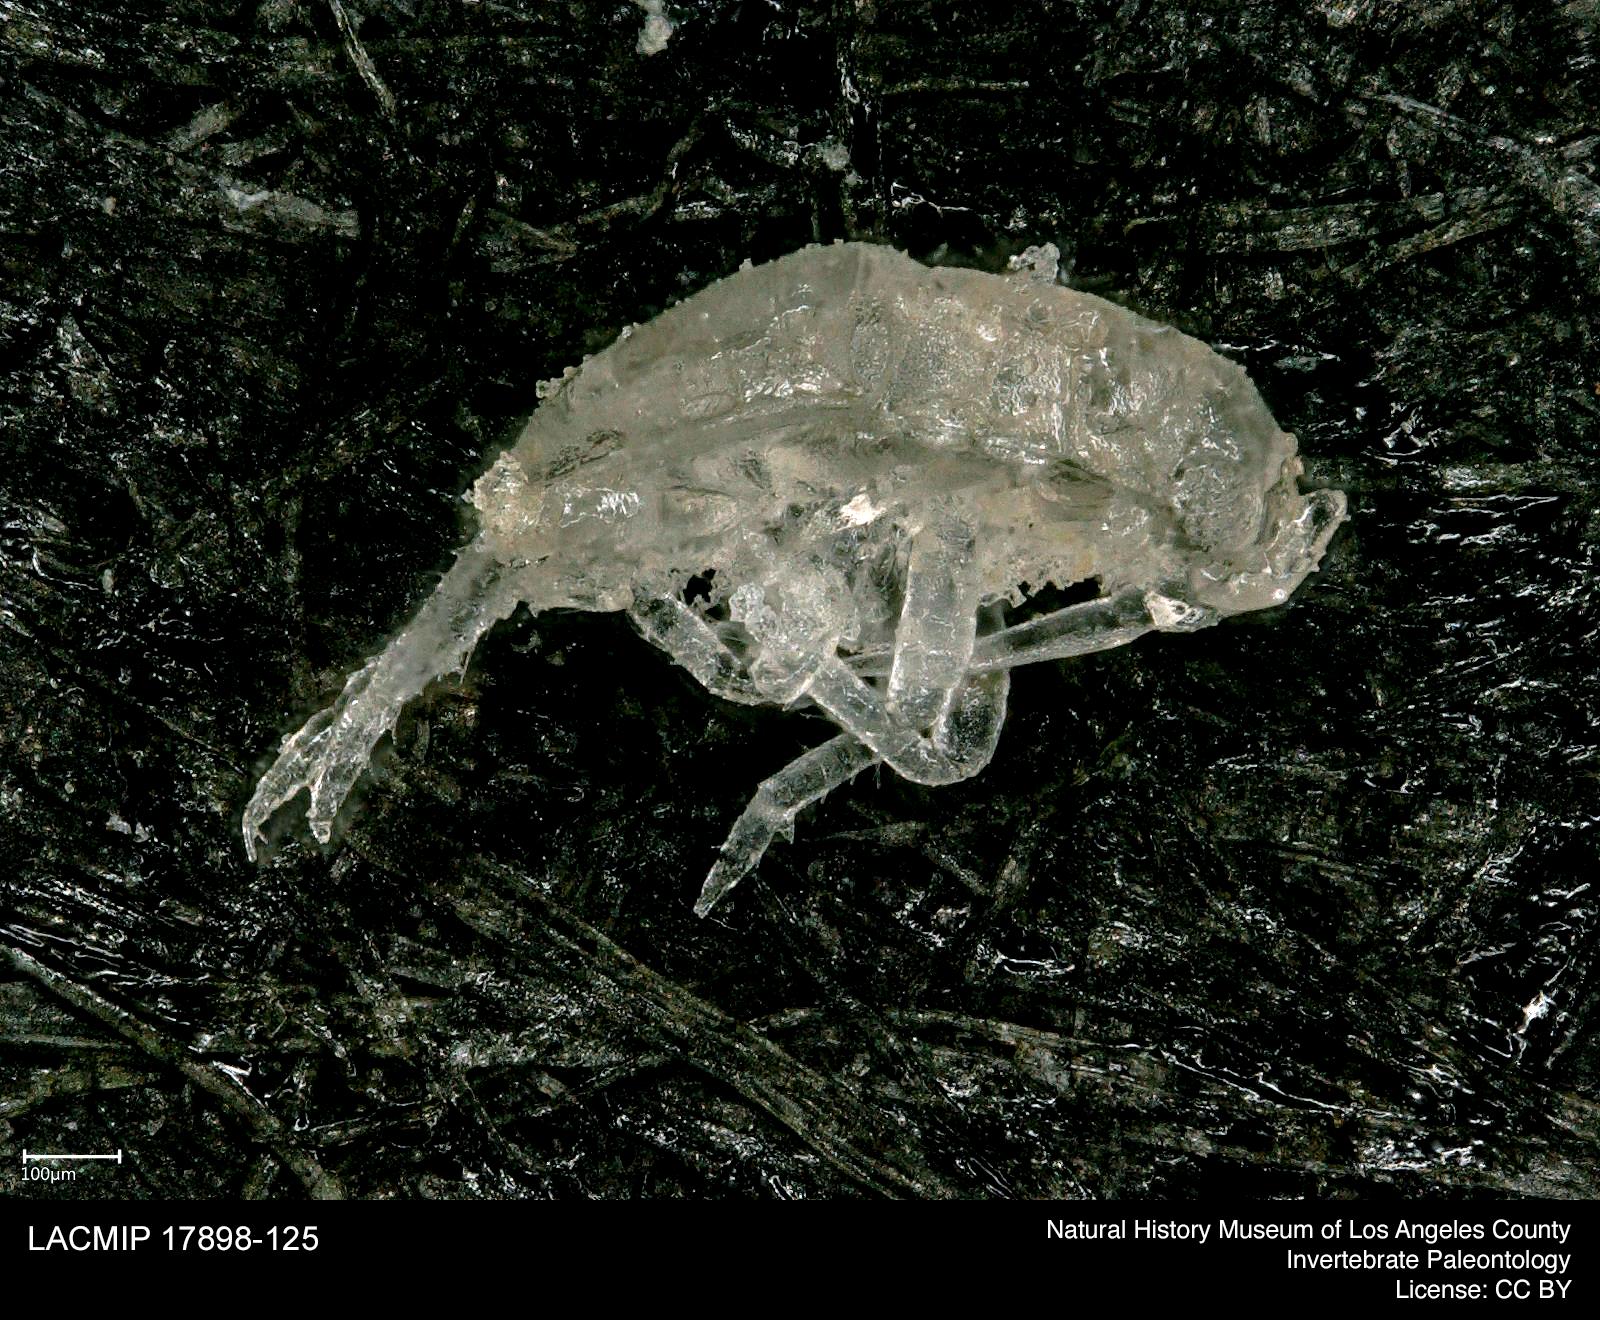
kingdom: Animalia
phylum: Arthropoda
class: Insecta
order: Hemiptera
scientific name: Hemiptera
